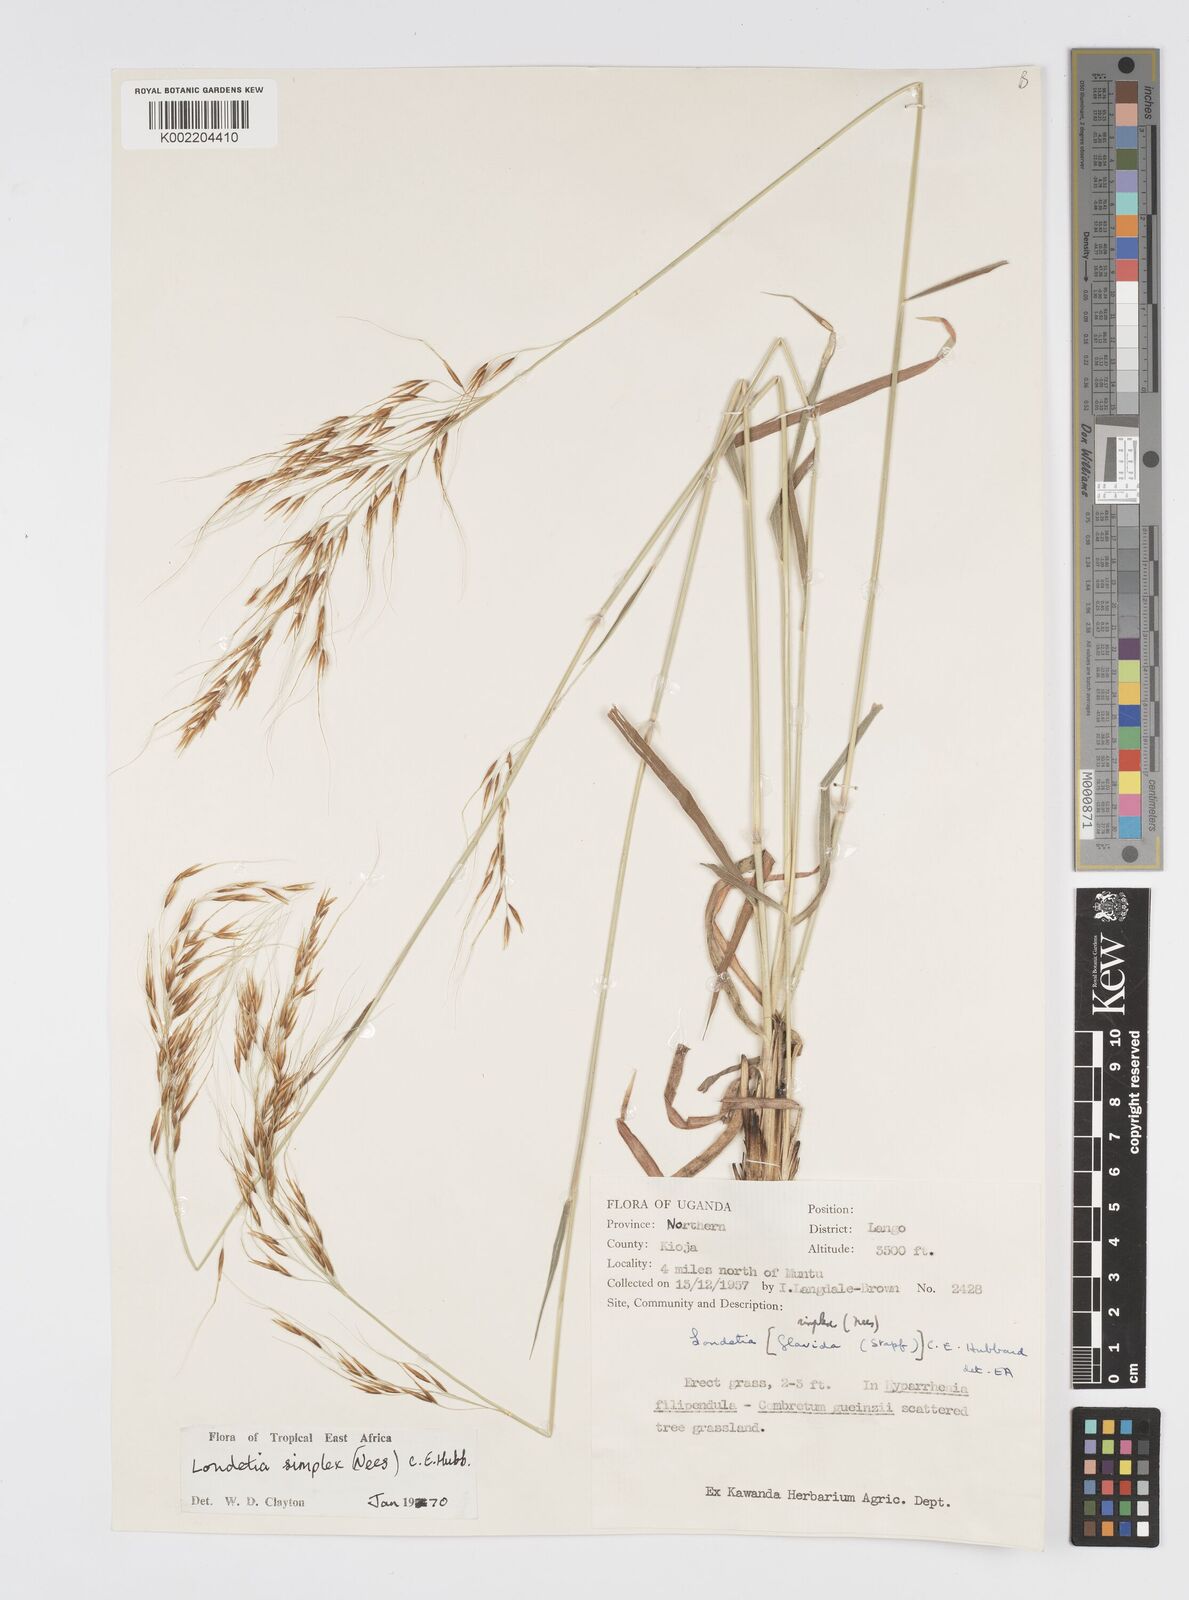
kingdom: Plantae
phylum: Tracheophyta
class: Liliopsida
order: Poales
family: Poaceae
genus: Loudetia
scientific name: Loudetia simplex
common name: Common russet grass
